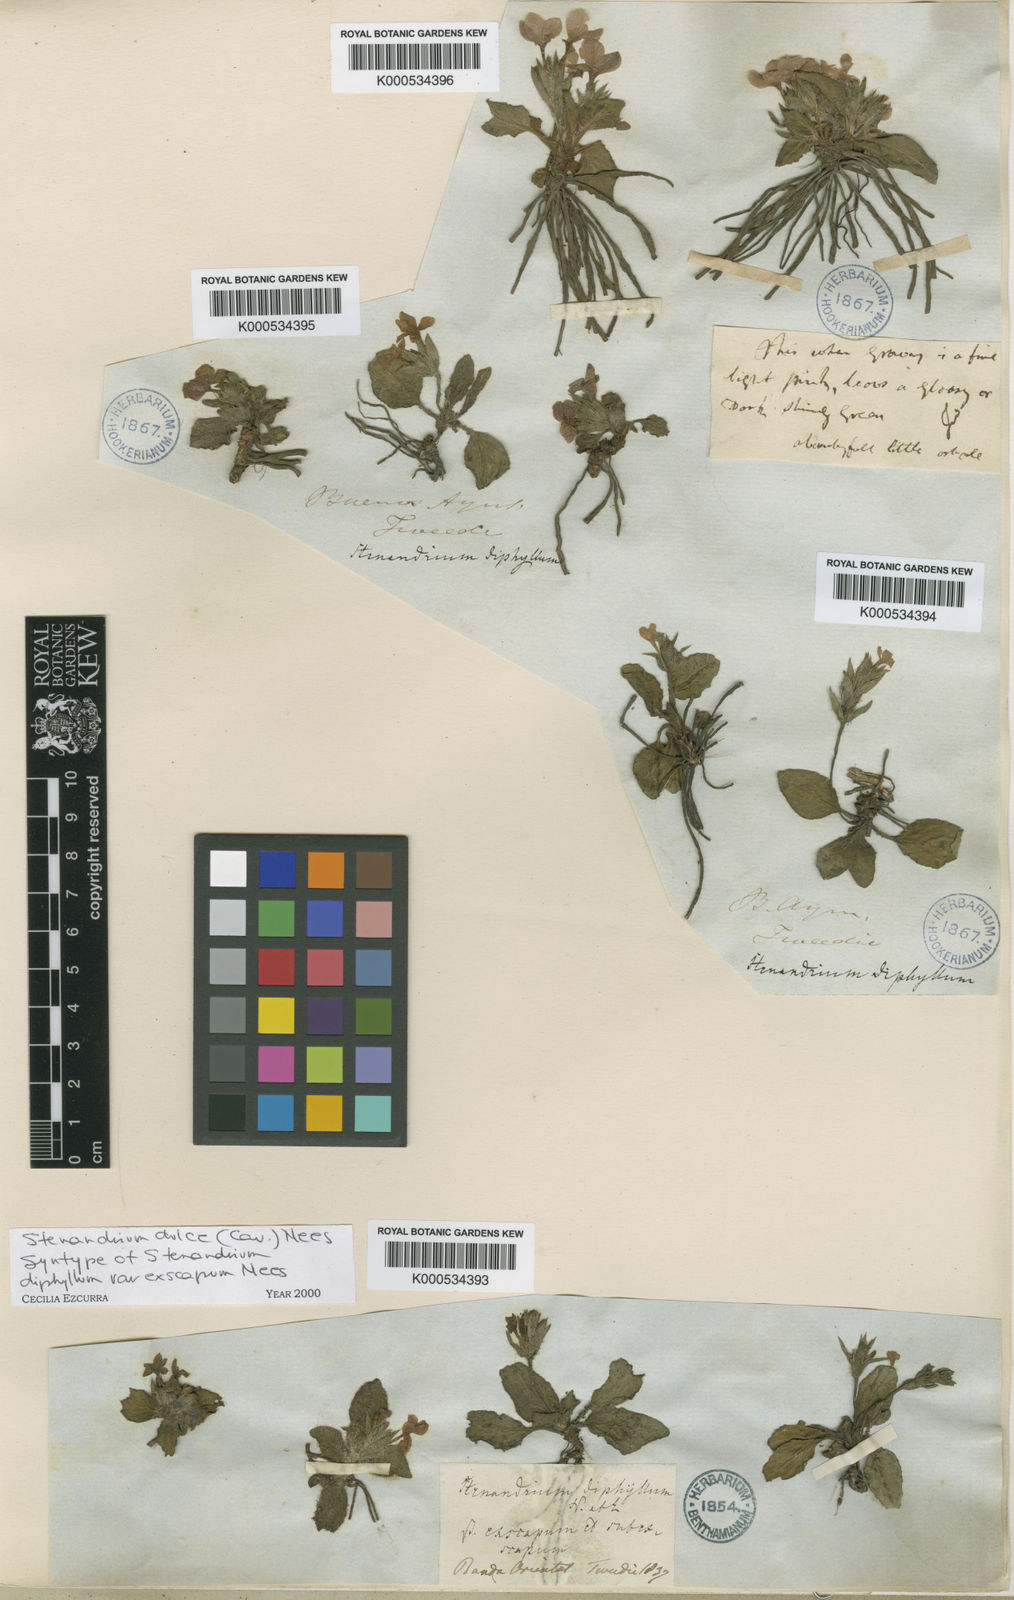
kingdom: Plantae
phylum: Tracheophyta
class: Magnoliopsida
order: Lamiales
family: Acanthaceae
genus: Stenandrium
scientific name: Stenandrium dulce
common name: Pinklet
